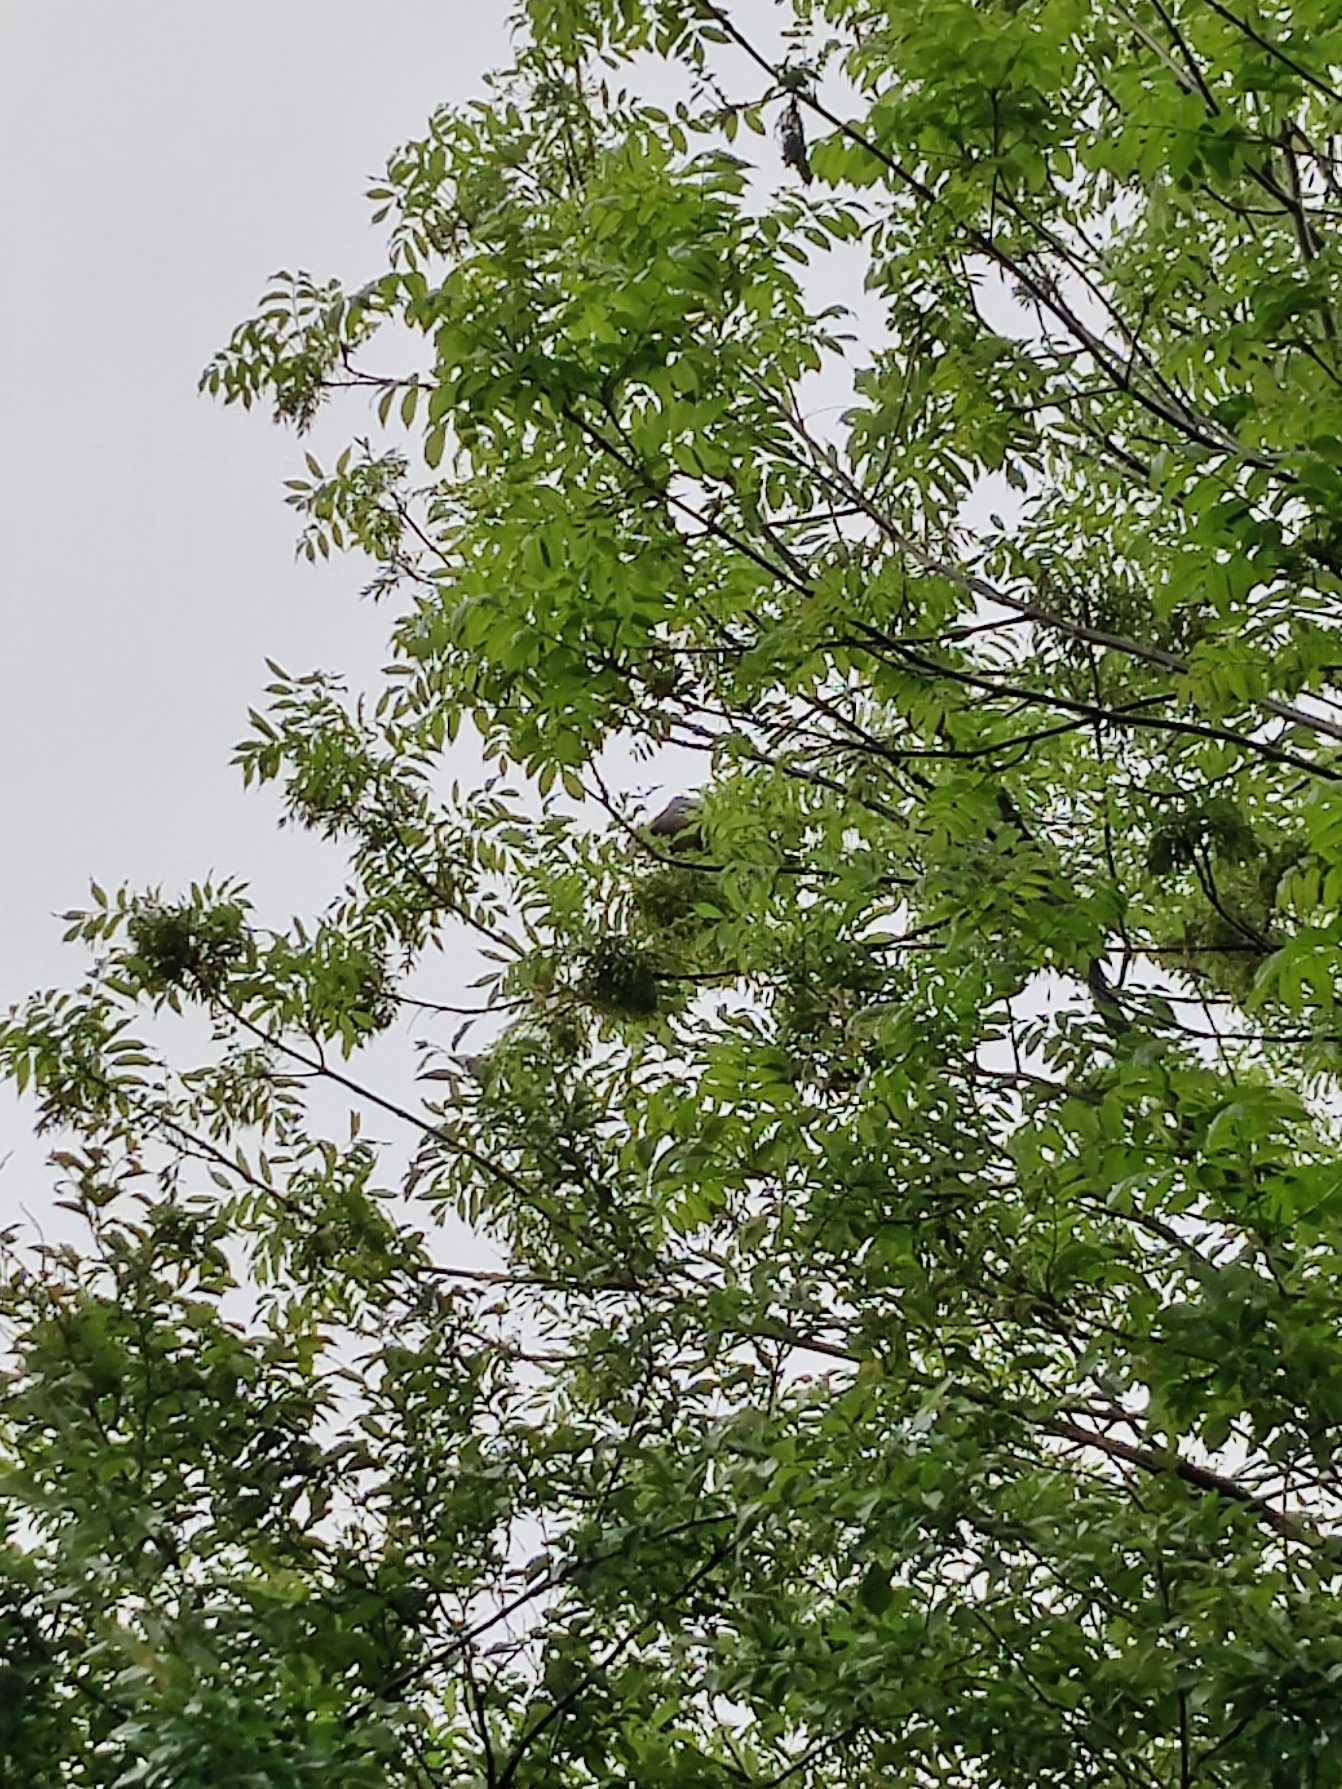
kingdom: Animalia
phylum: Chordata
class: Aves
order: Columbiformes
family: Columbidae
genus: Columba
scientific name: Columba palumbus
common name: Ringdue
